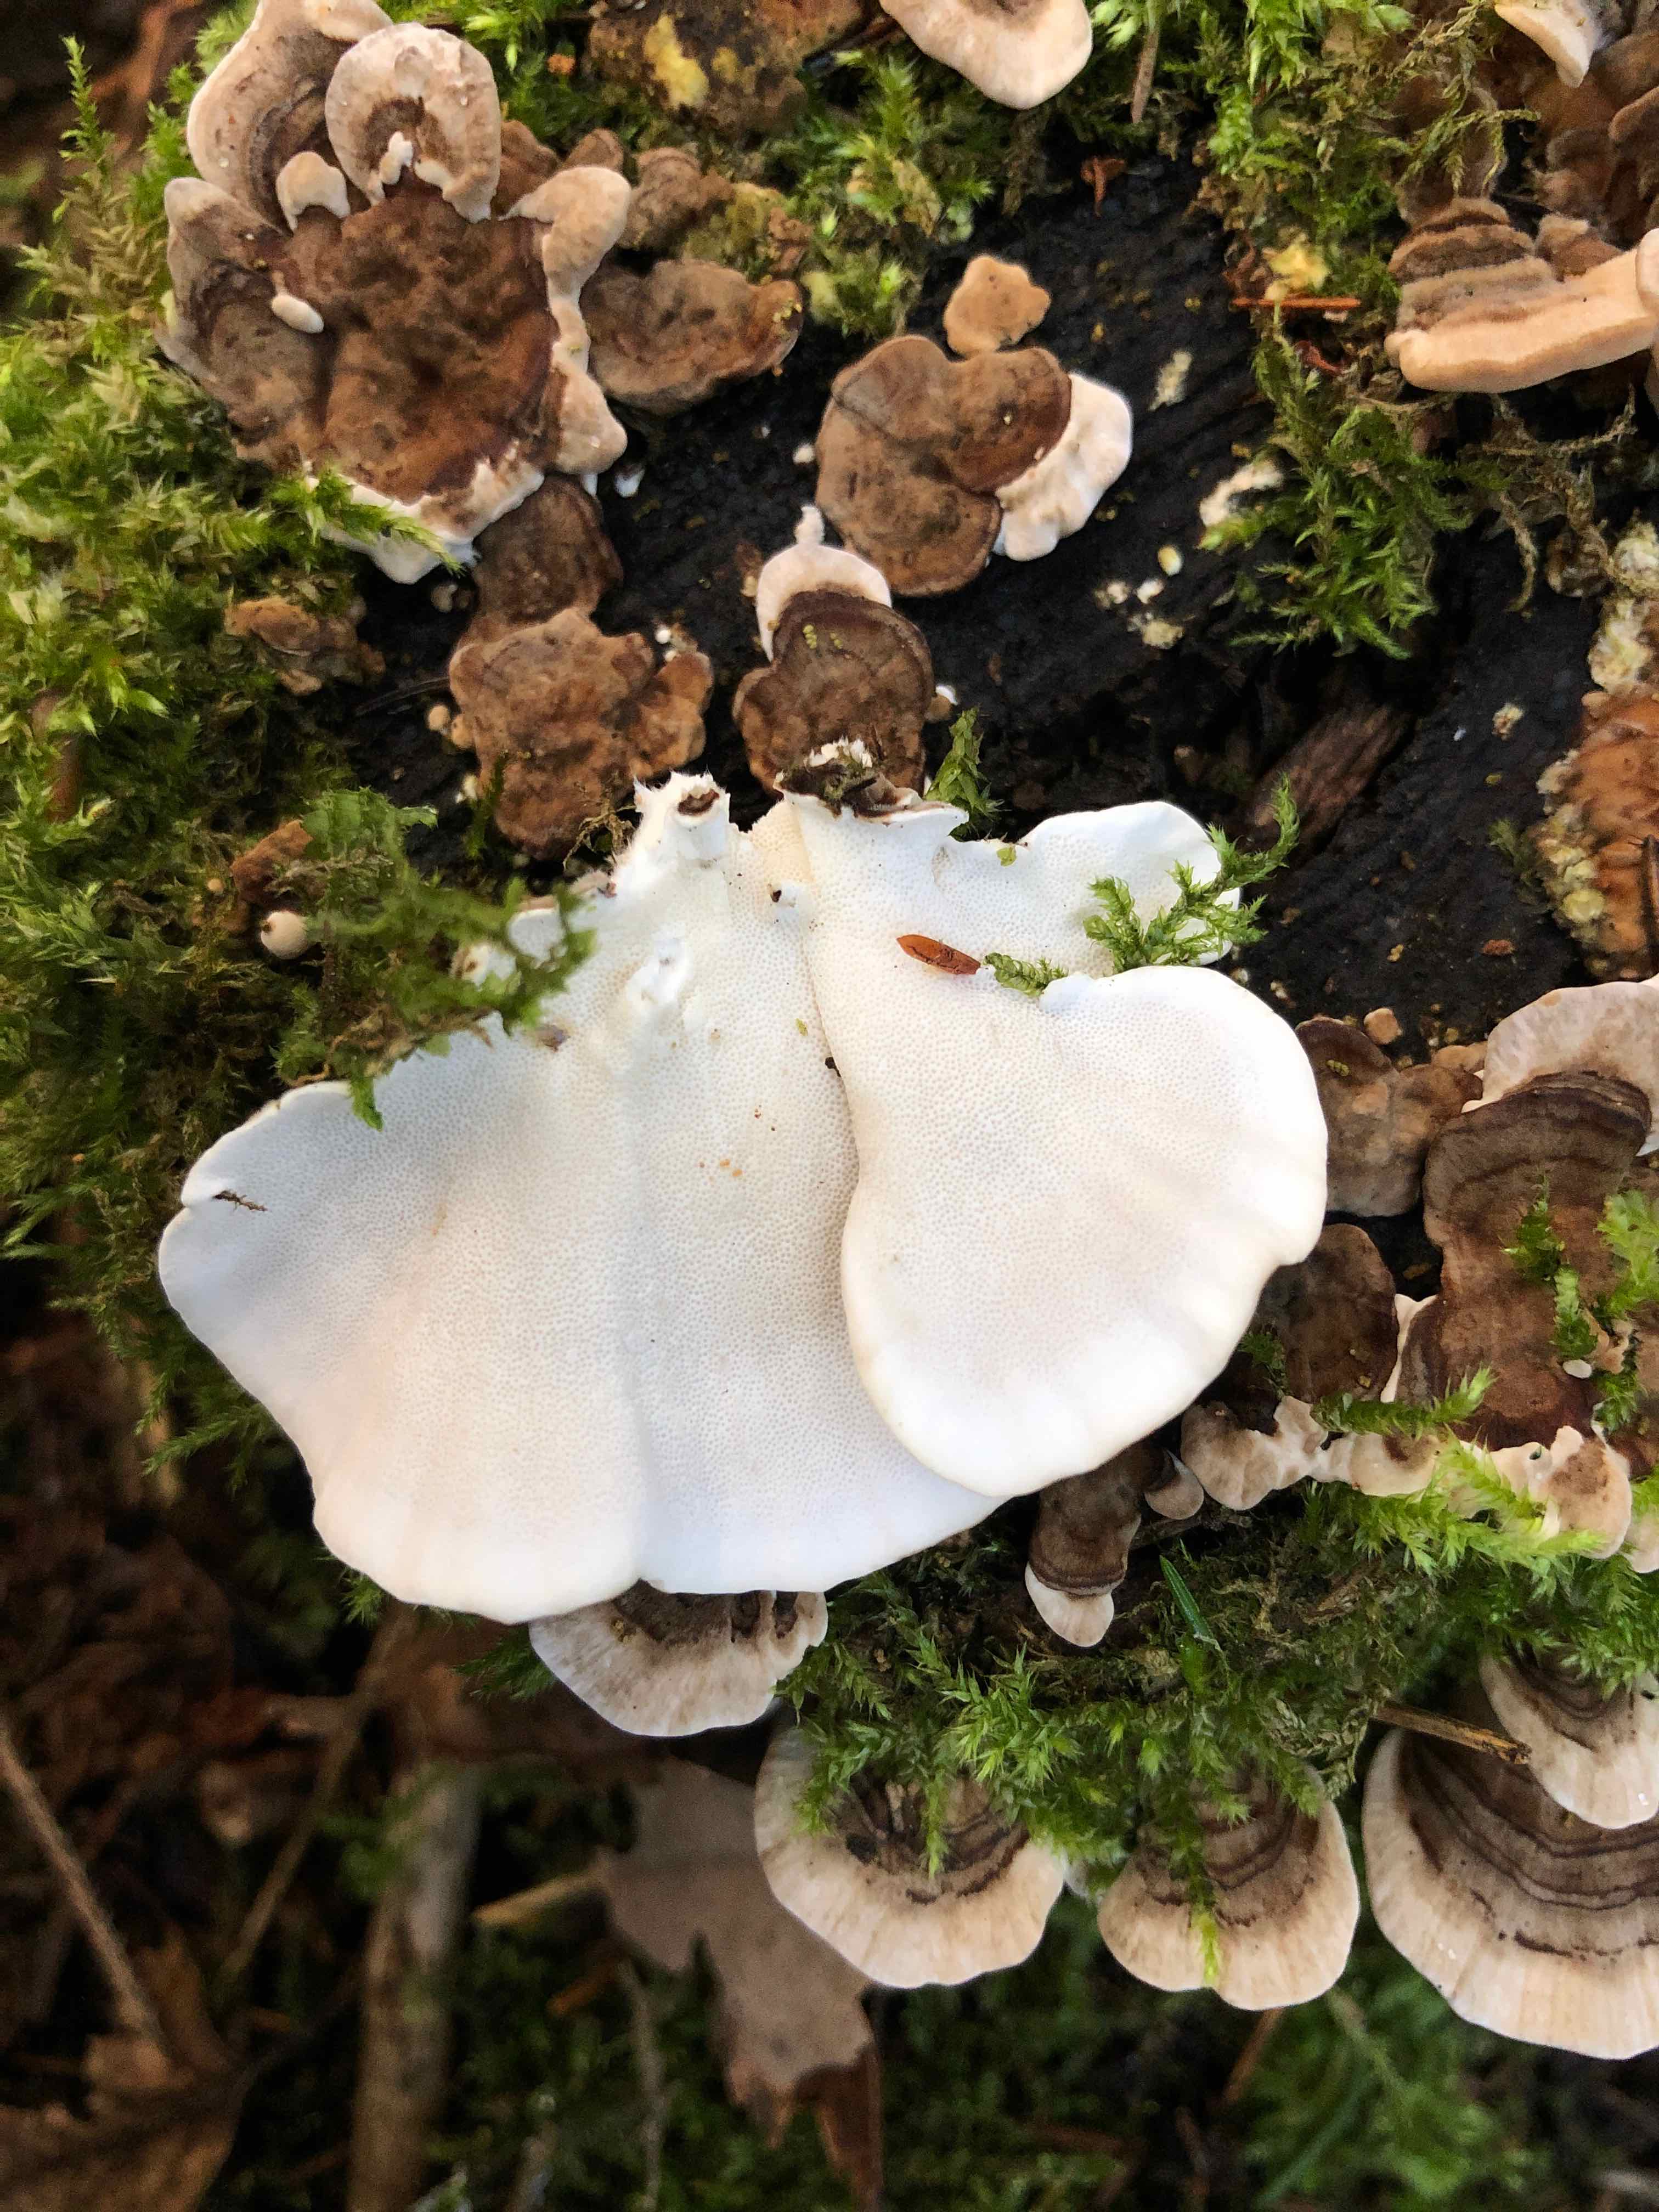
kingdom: Fungi
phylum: Basidiomycota
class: Agaricomycetes
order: Polyporales
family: Polyporaceae
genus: Trametes
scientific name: Trametes versicolor
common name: broget læderporesvamp
